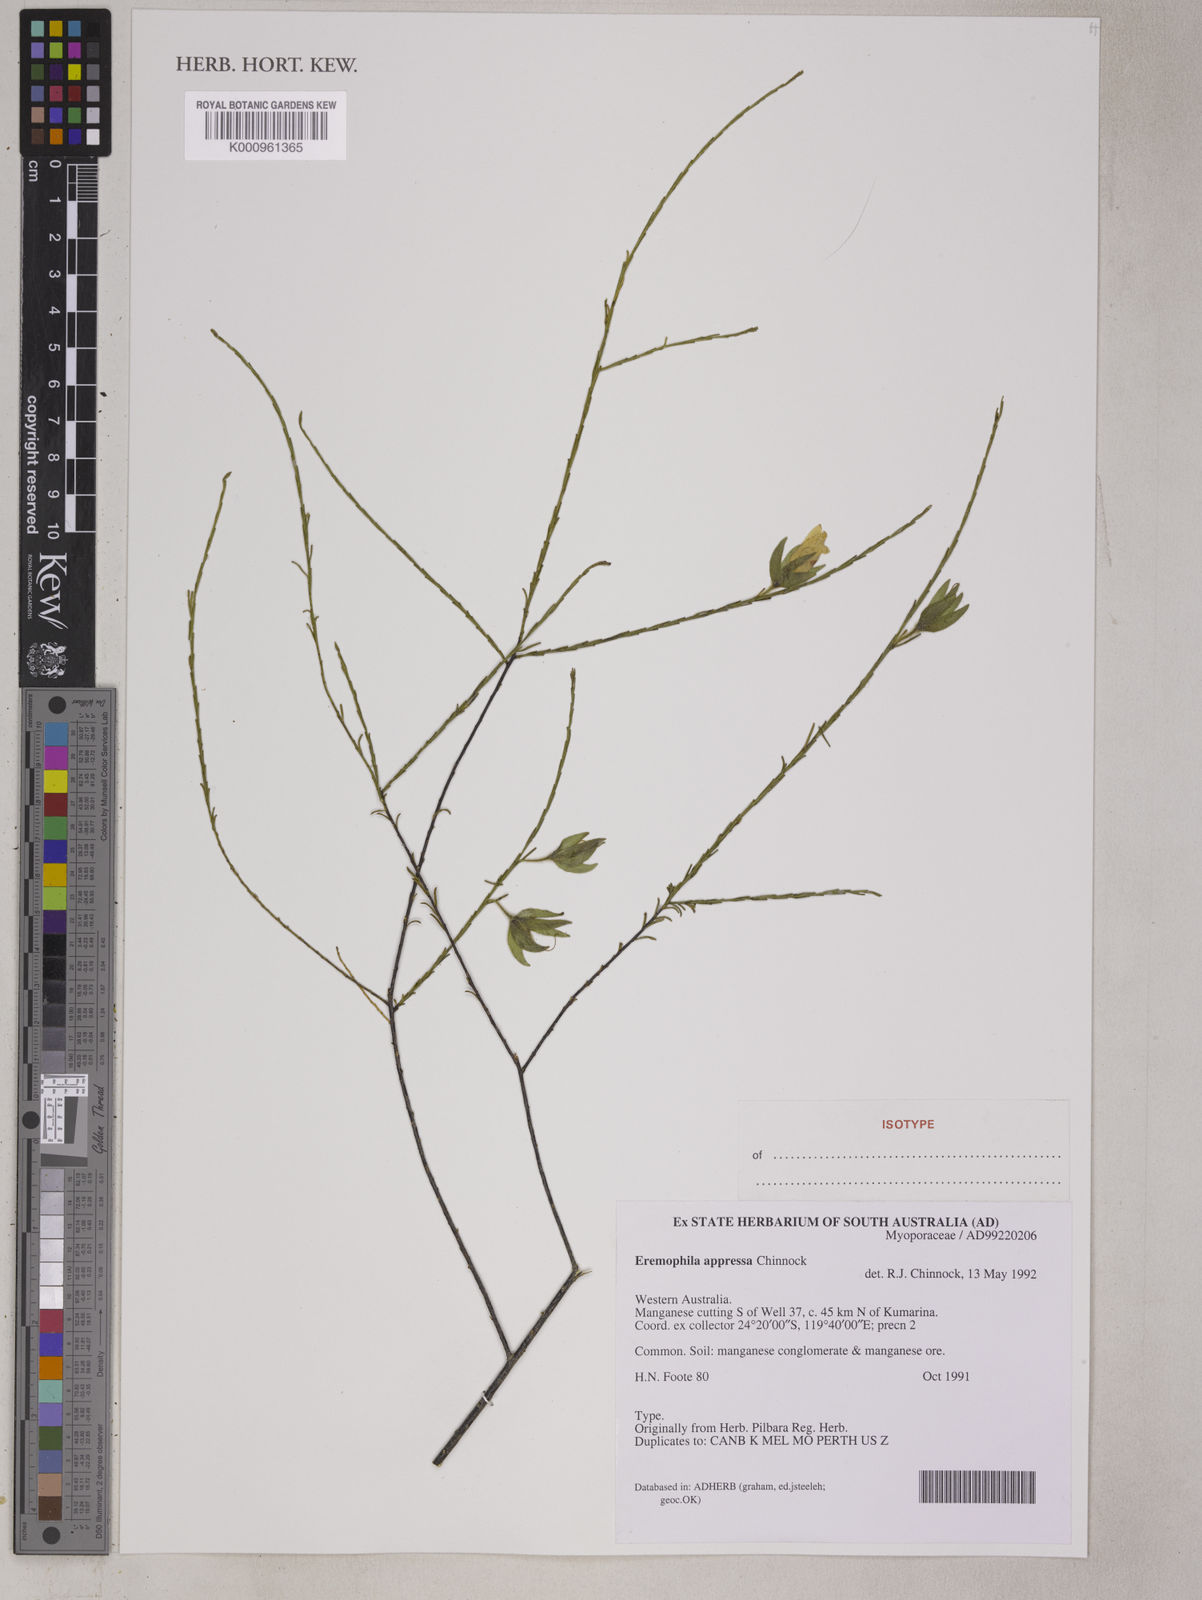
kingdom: Plantae
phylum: Tracheophyta
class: Magnoliopsida
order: Lamiales
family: Scrophulariaceae
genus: Eremophila
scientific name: Eremophila appressa
